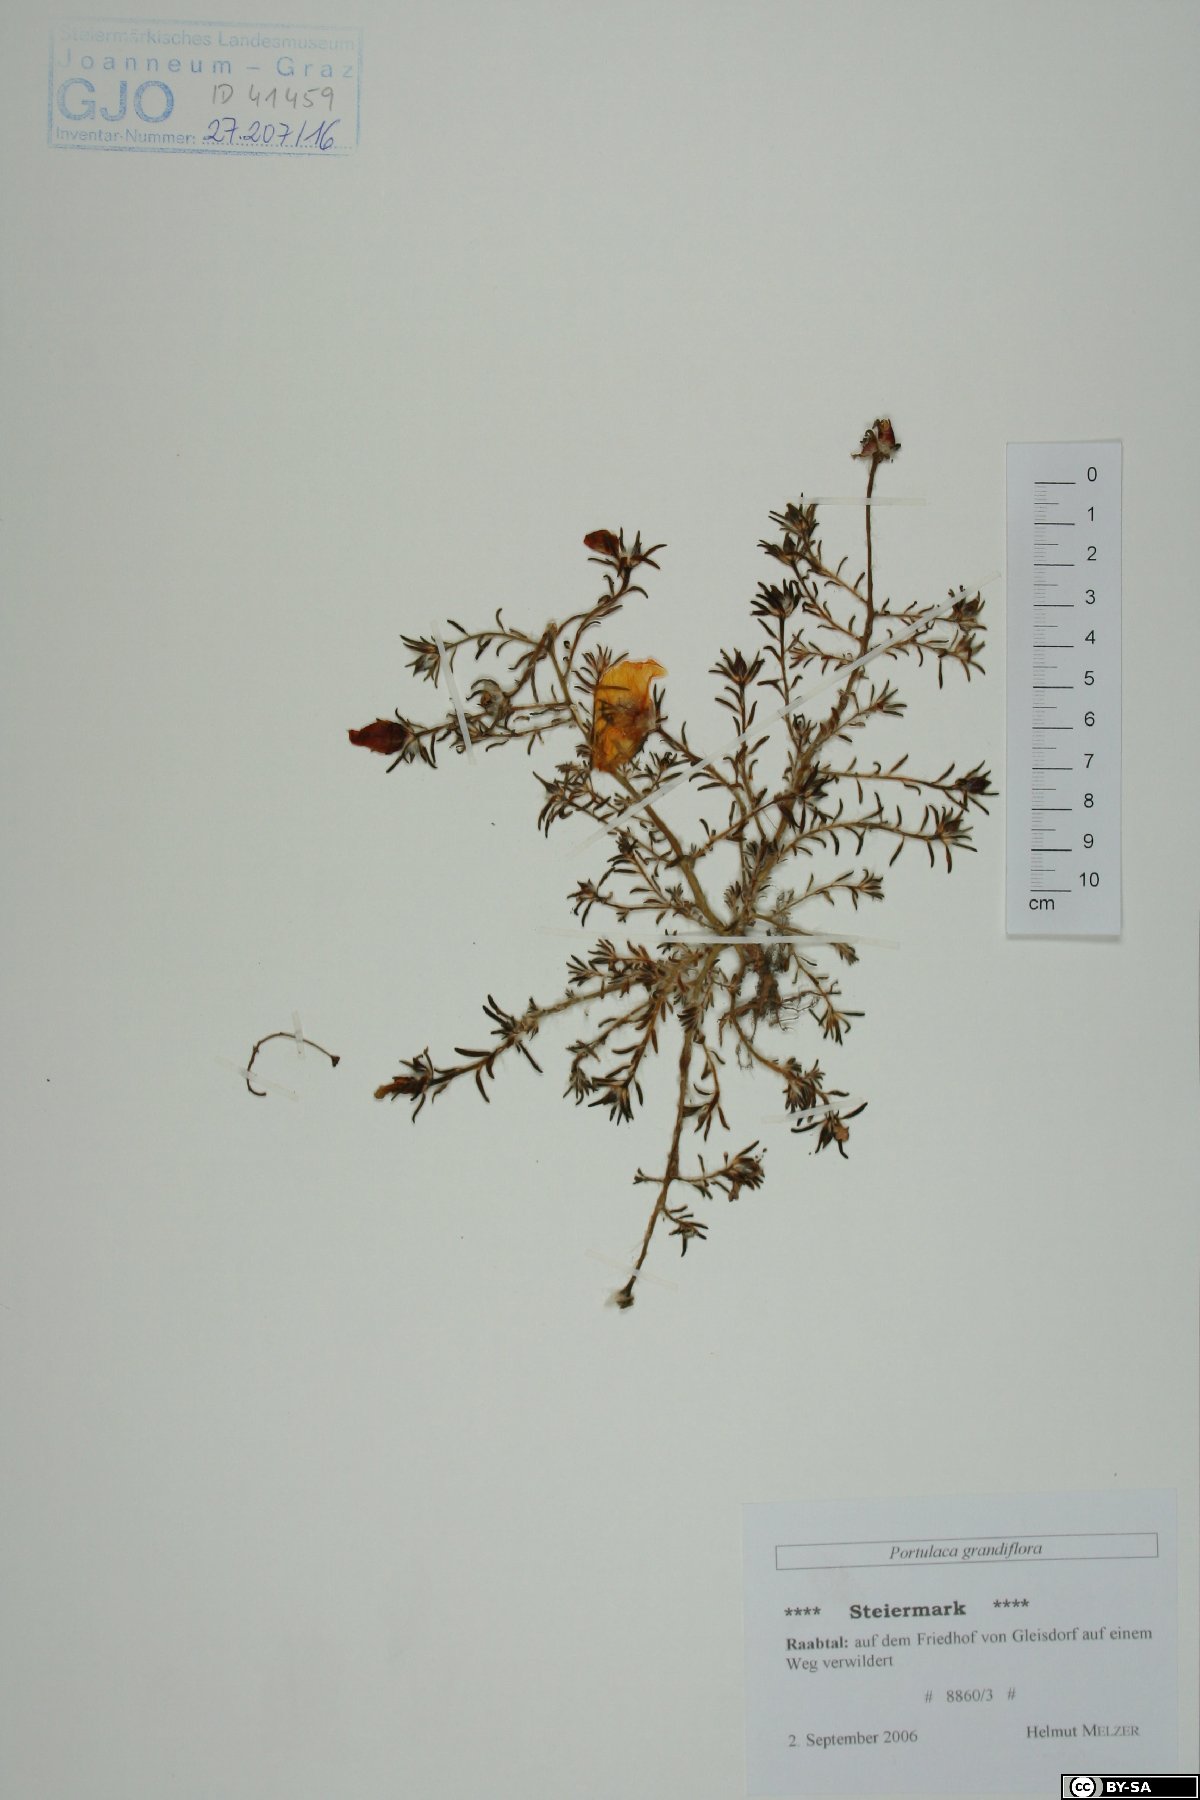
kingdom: Plantae
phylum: Tracheophyta
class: Magnoliopsida
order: Caryophyllales
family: Portulacaceae
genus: Portulaca
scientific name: Portulaca grandiflora
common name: Moss-rose
